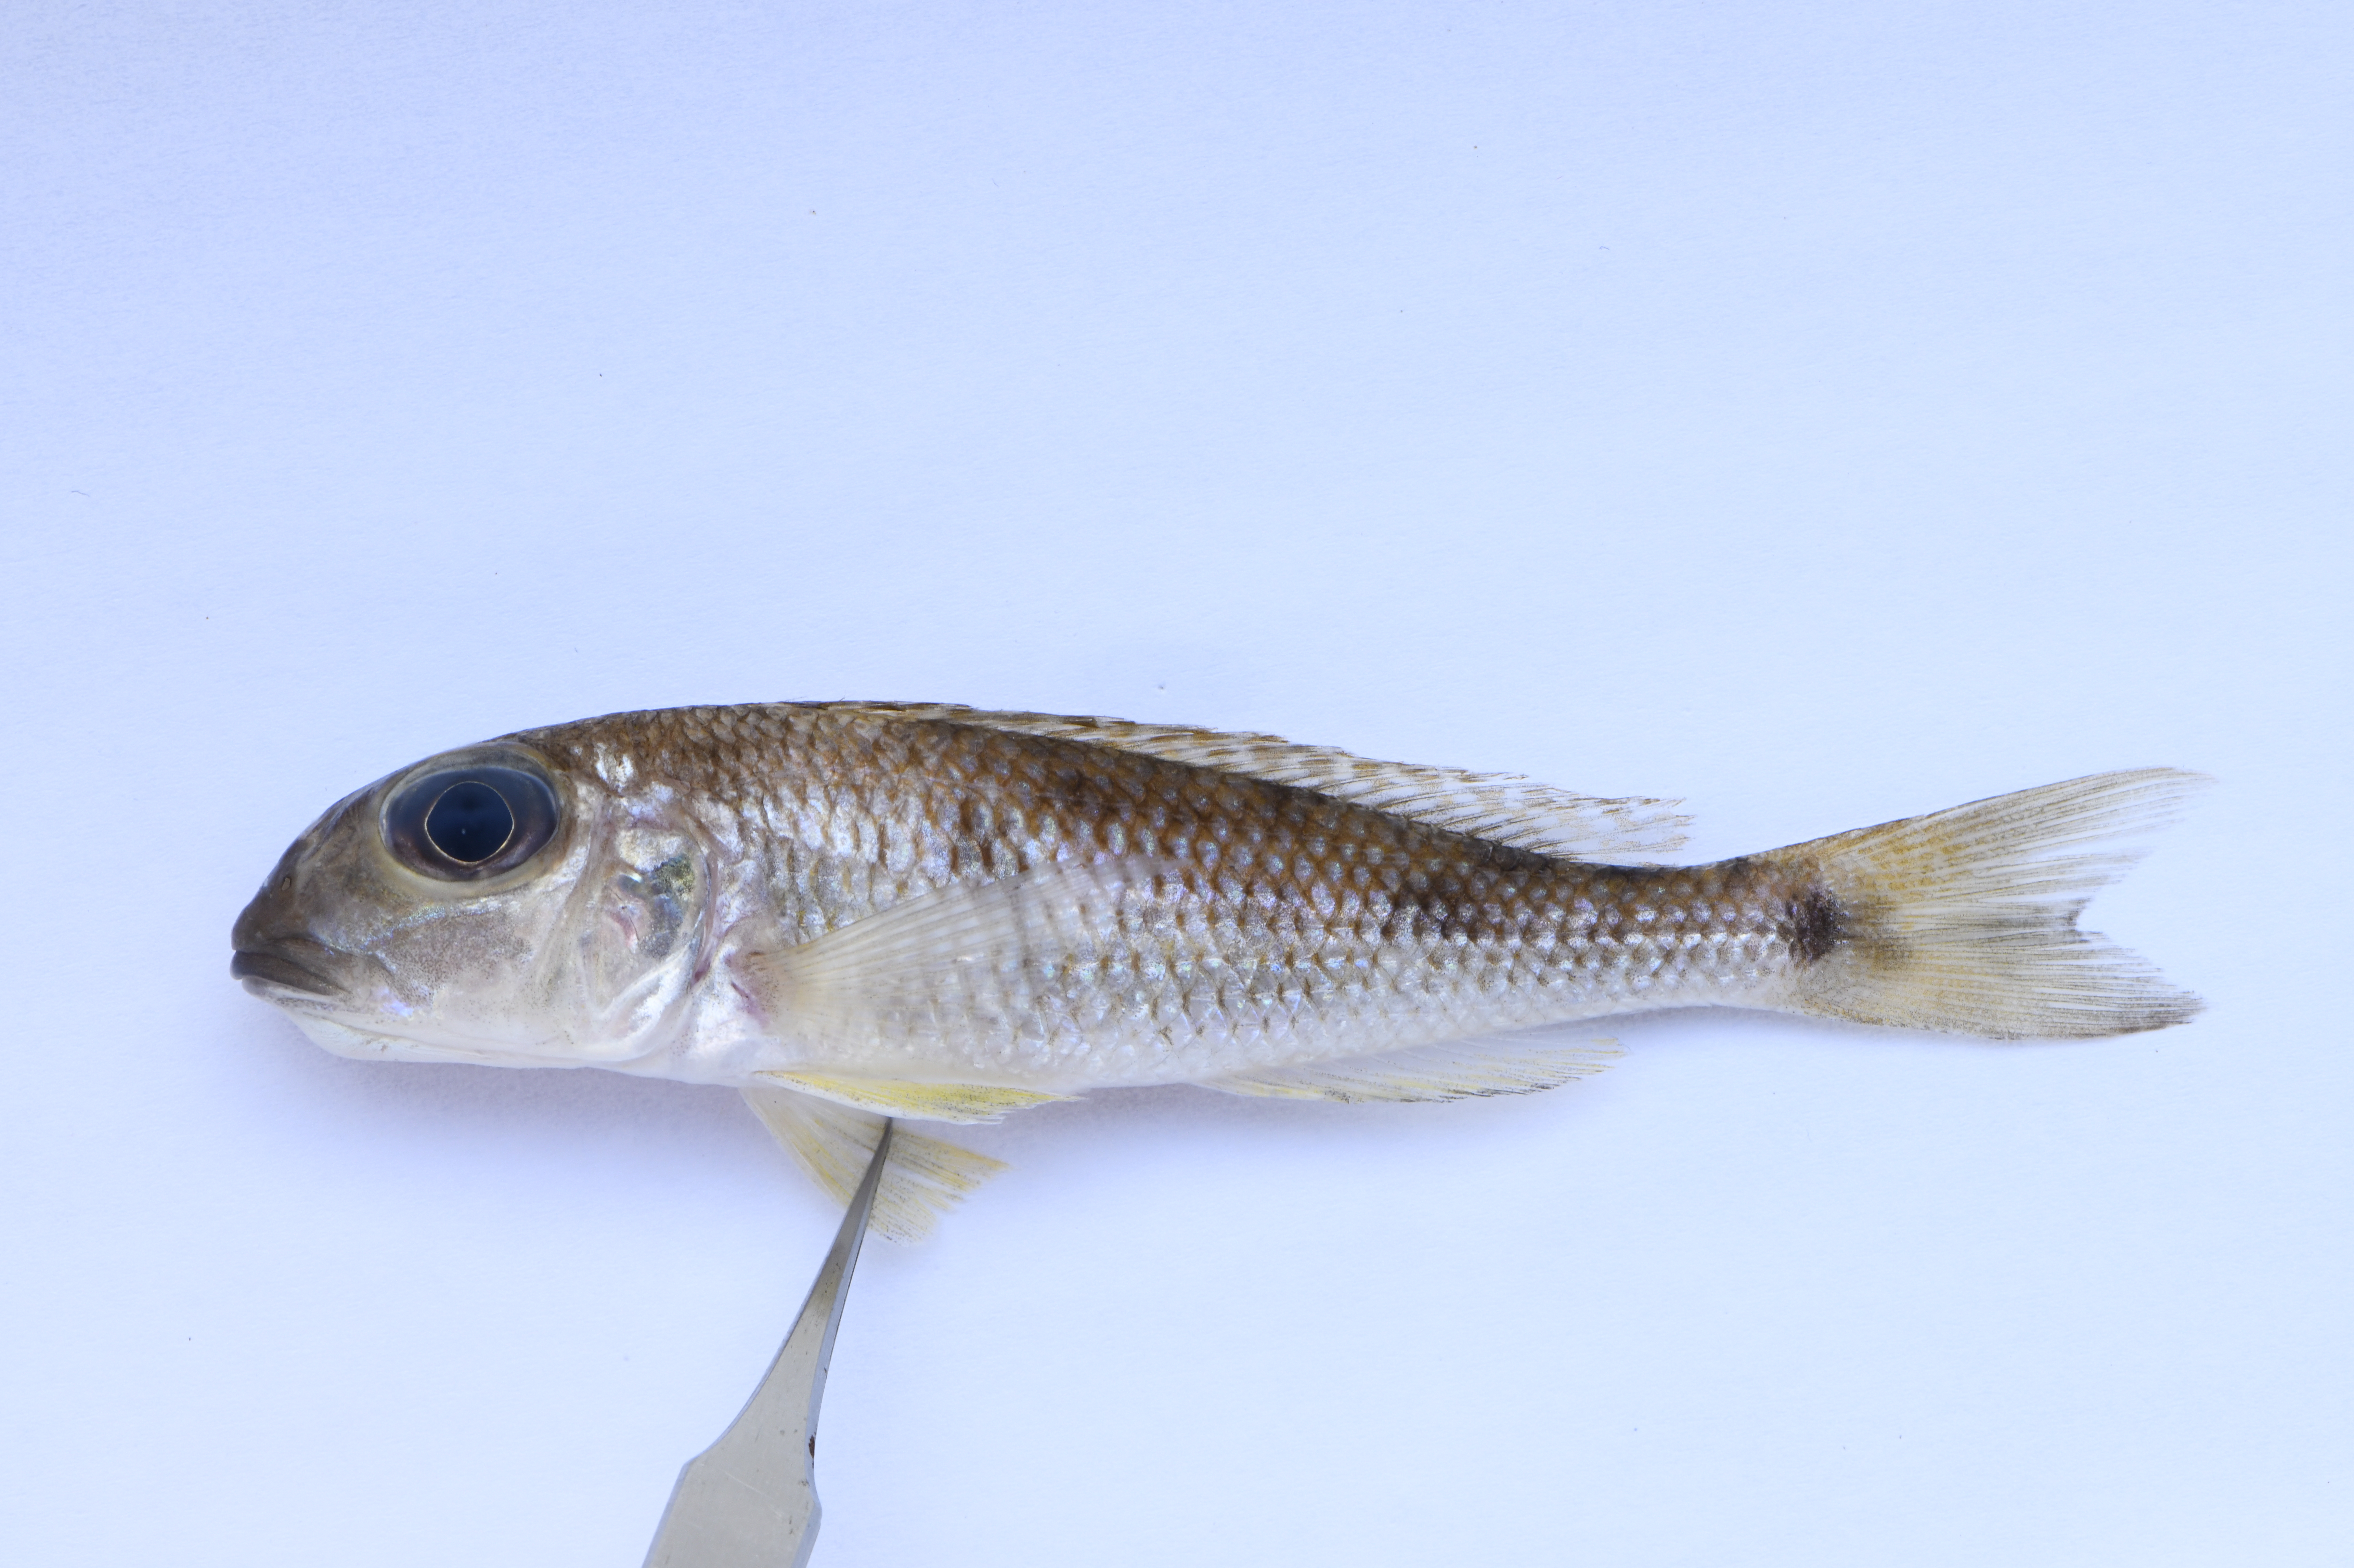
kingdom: Animalia
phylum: Chordata
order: Perciformes
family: Cichlidae
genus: Xenotilapia
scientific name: Xenotilapia
